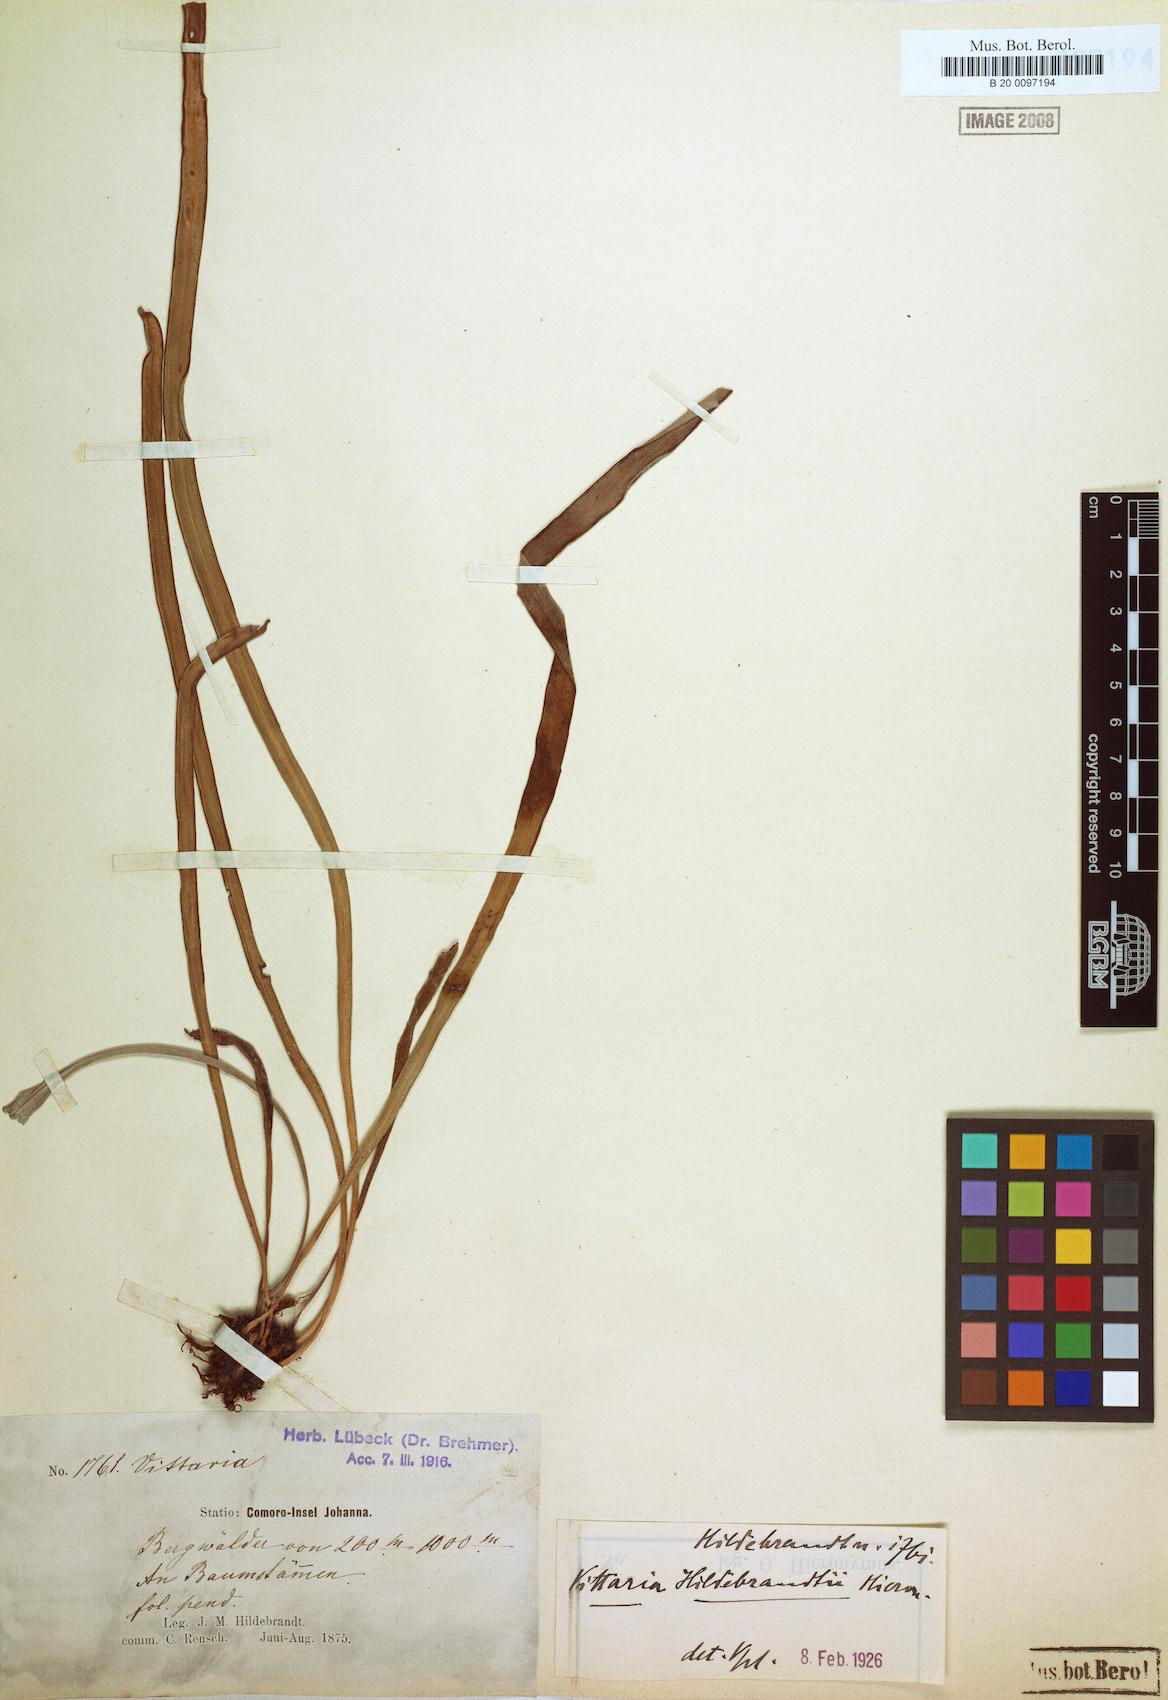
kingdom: Plantae
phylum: Tracheophyta
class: Polypodiopsida
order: Polypodiales
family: Pteridaceae
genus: Haplopteris
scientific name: Haplopteris elongata
